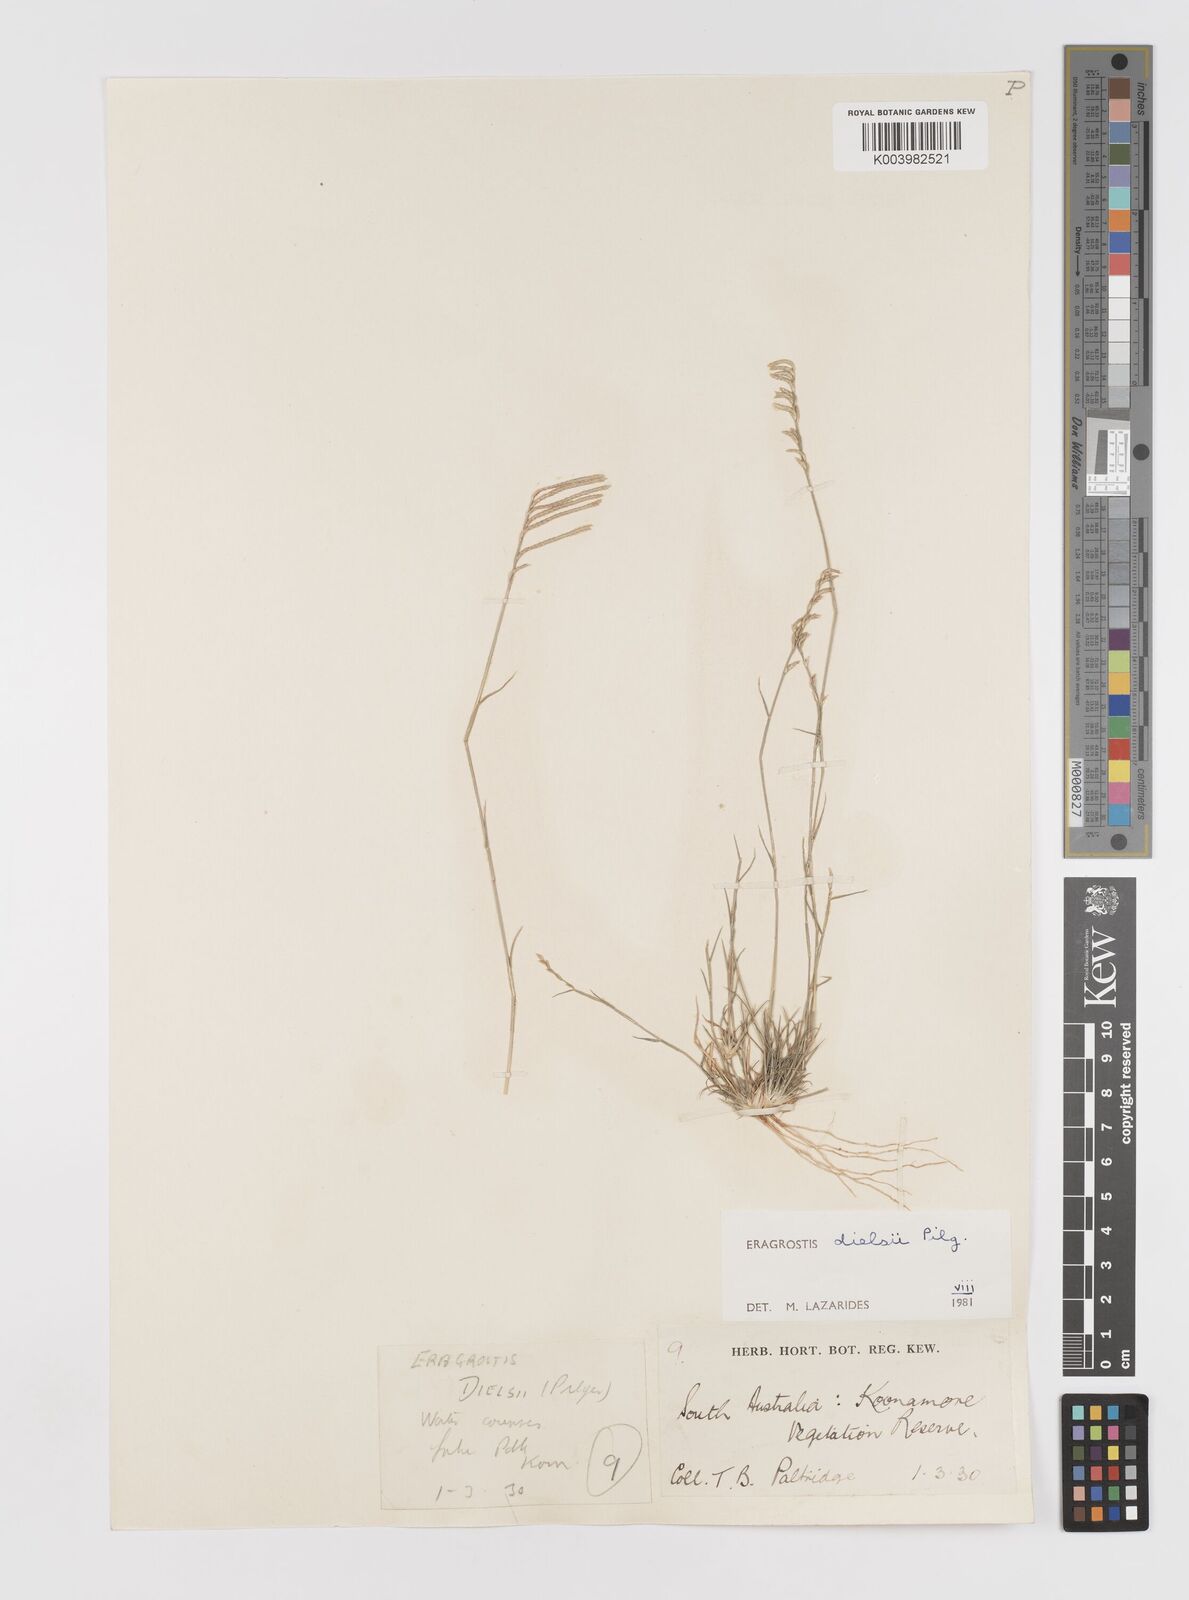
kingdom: Plantae
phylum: Tracheophyta
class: Liliopsida
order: Poales
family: Poaceae
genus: Eragrostis
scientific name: Eragrostis dielsii
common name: Lovegrass
